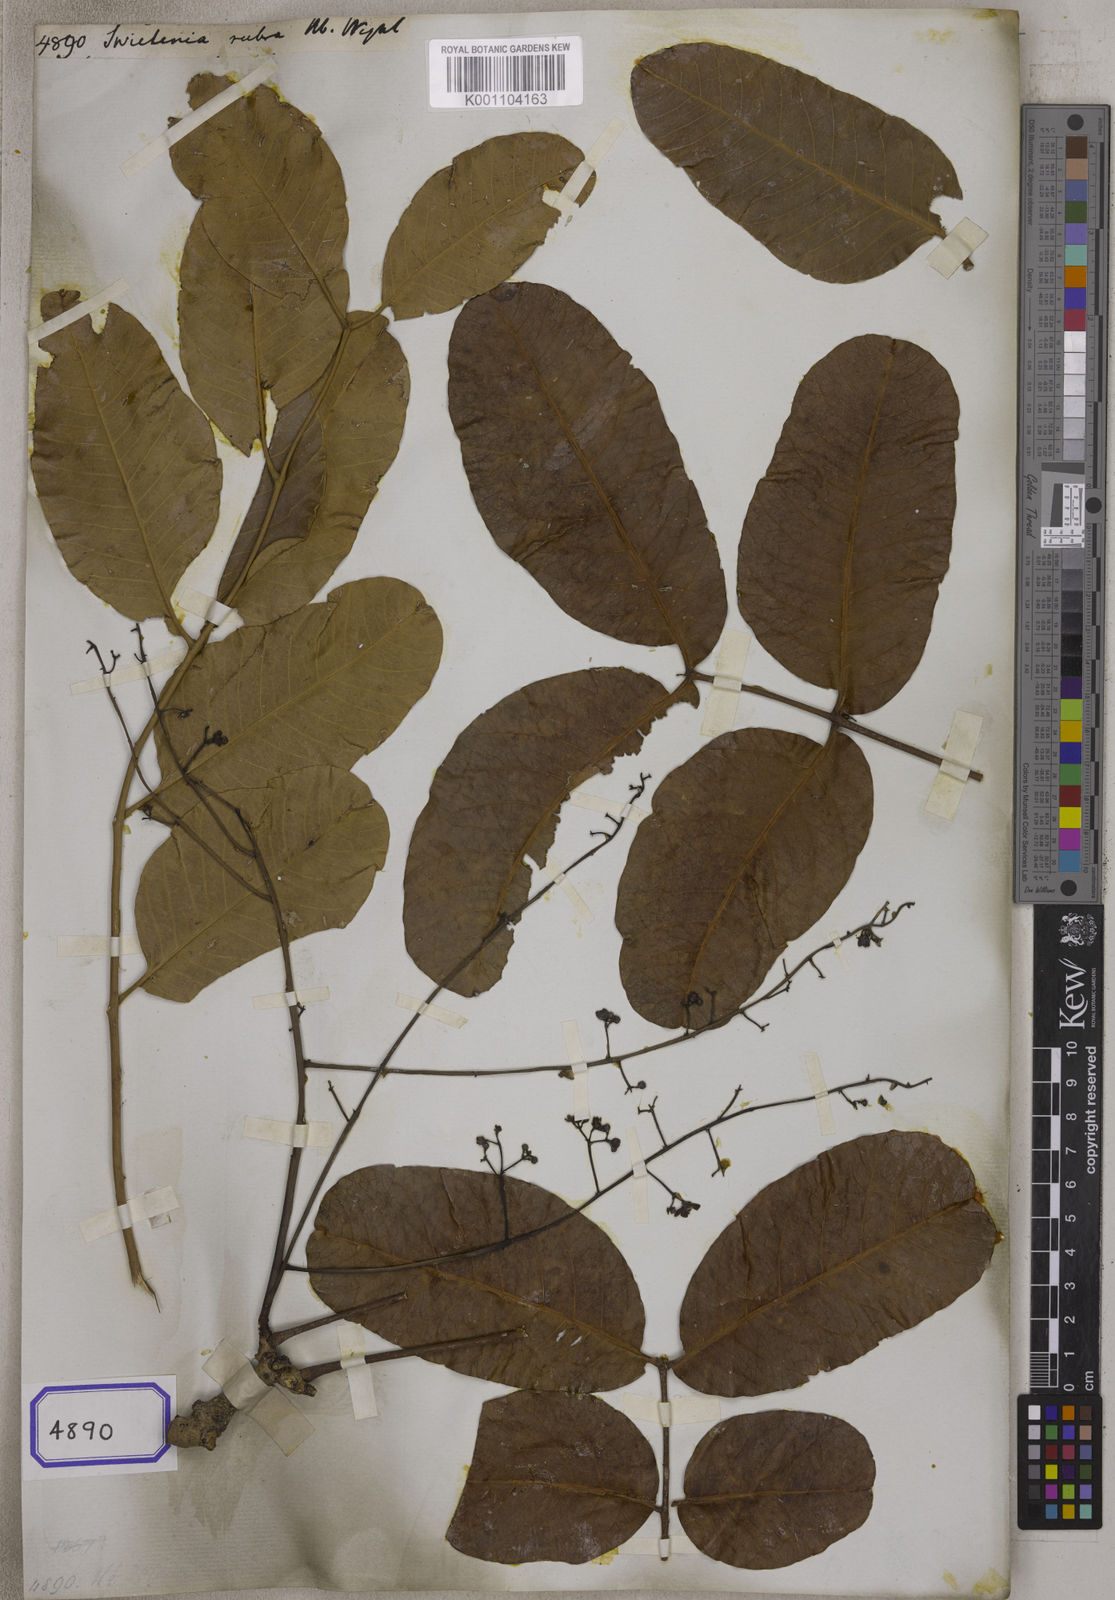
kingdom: Plantae
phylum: Tracheophyta
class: Magnoliopsida
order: Sapindales
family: Meliaceae
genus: Soymida
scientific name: Soymida febrifuga
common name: Indian-redwood
